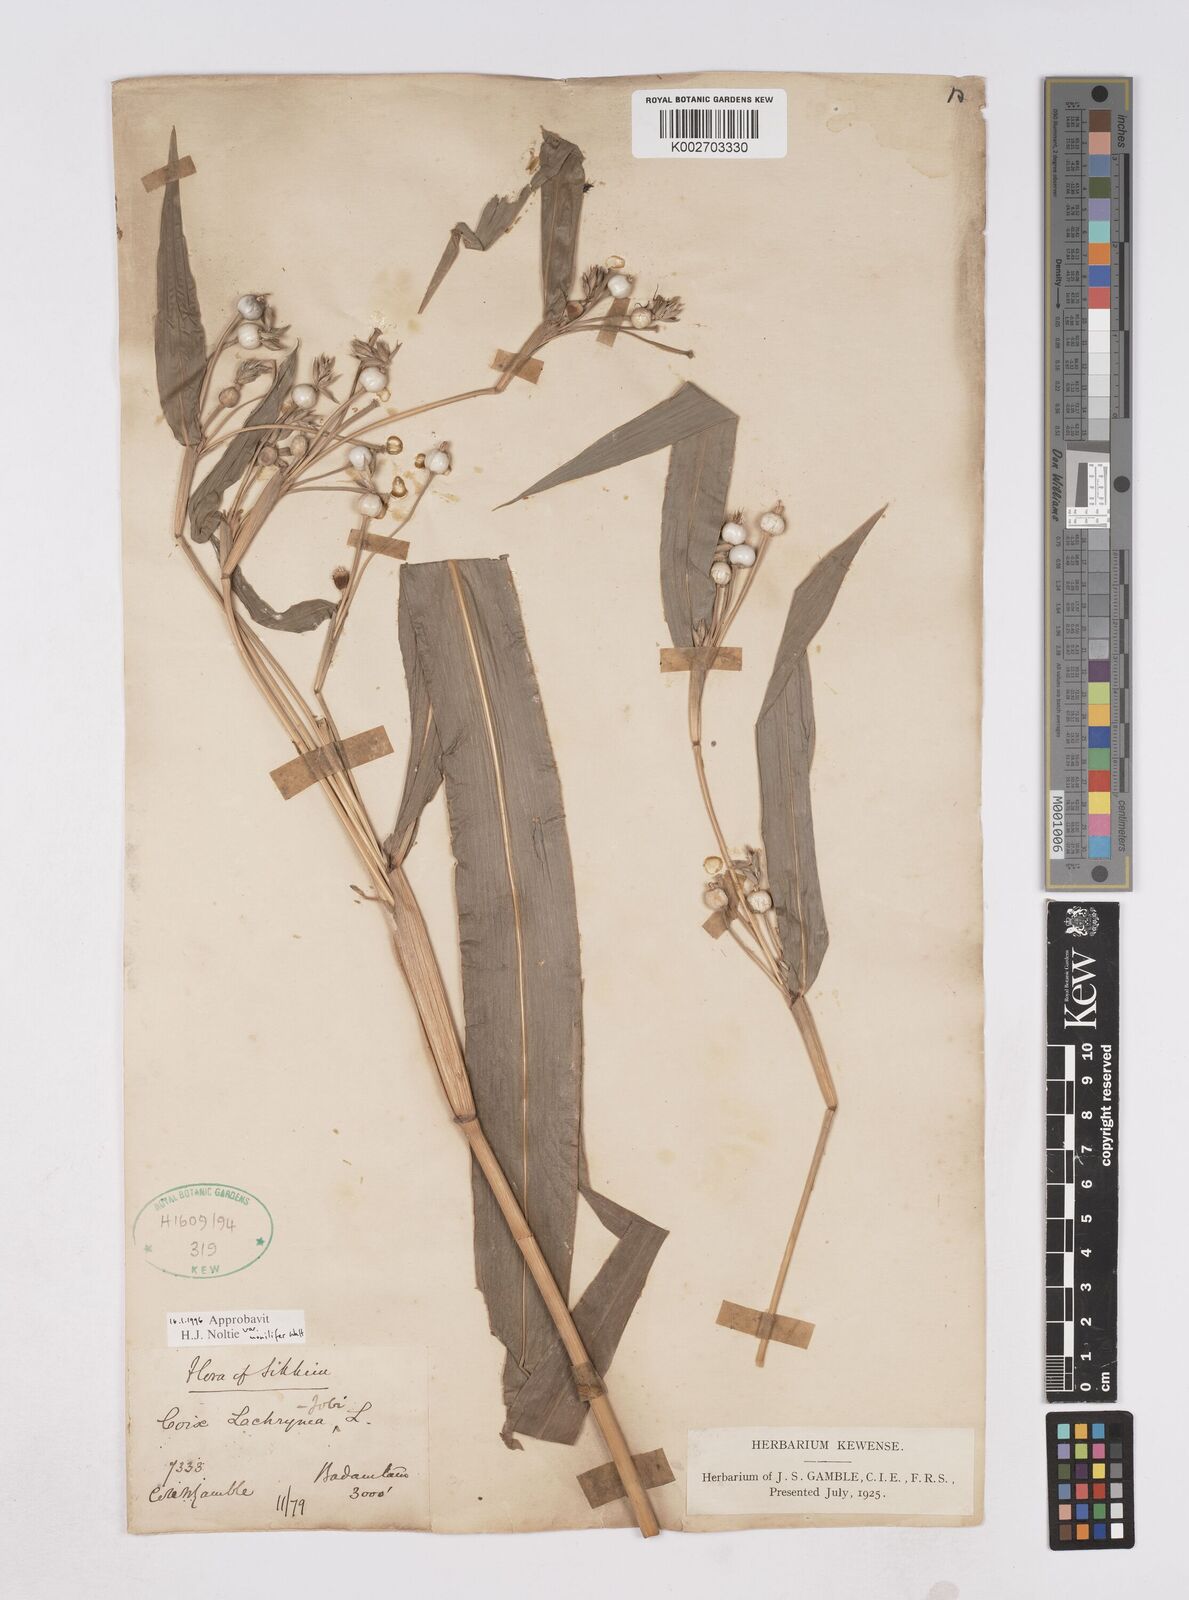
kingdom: Plantae
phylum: Tracheophyta
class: Liliopsida
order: Poales
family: Poaceae
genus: Coix
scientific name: Coix lacryma-jobi
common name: Job's tears
